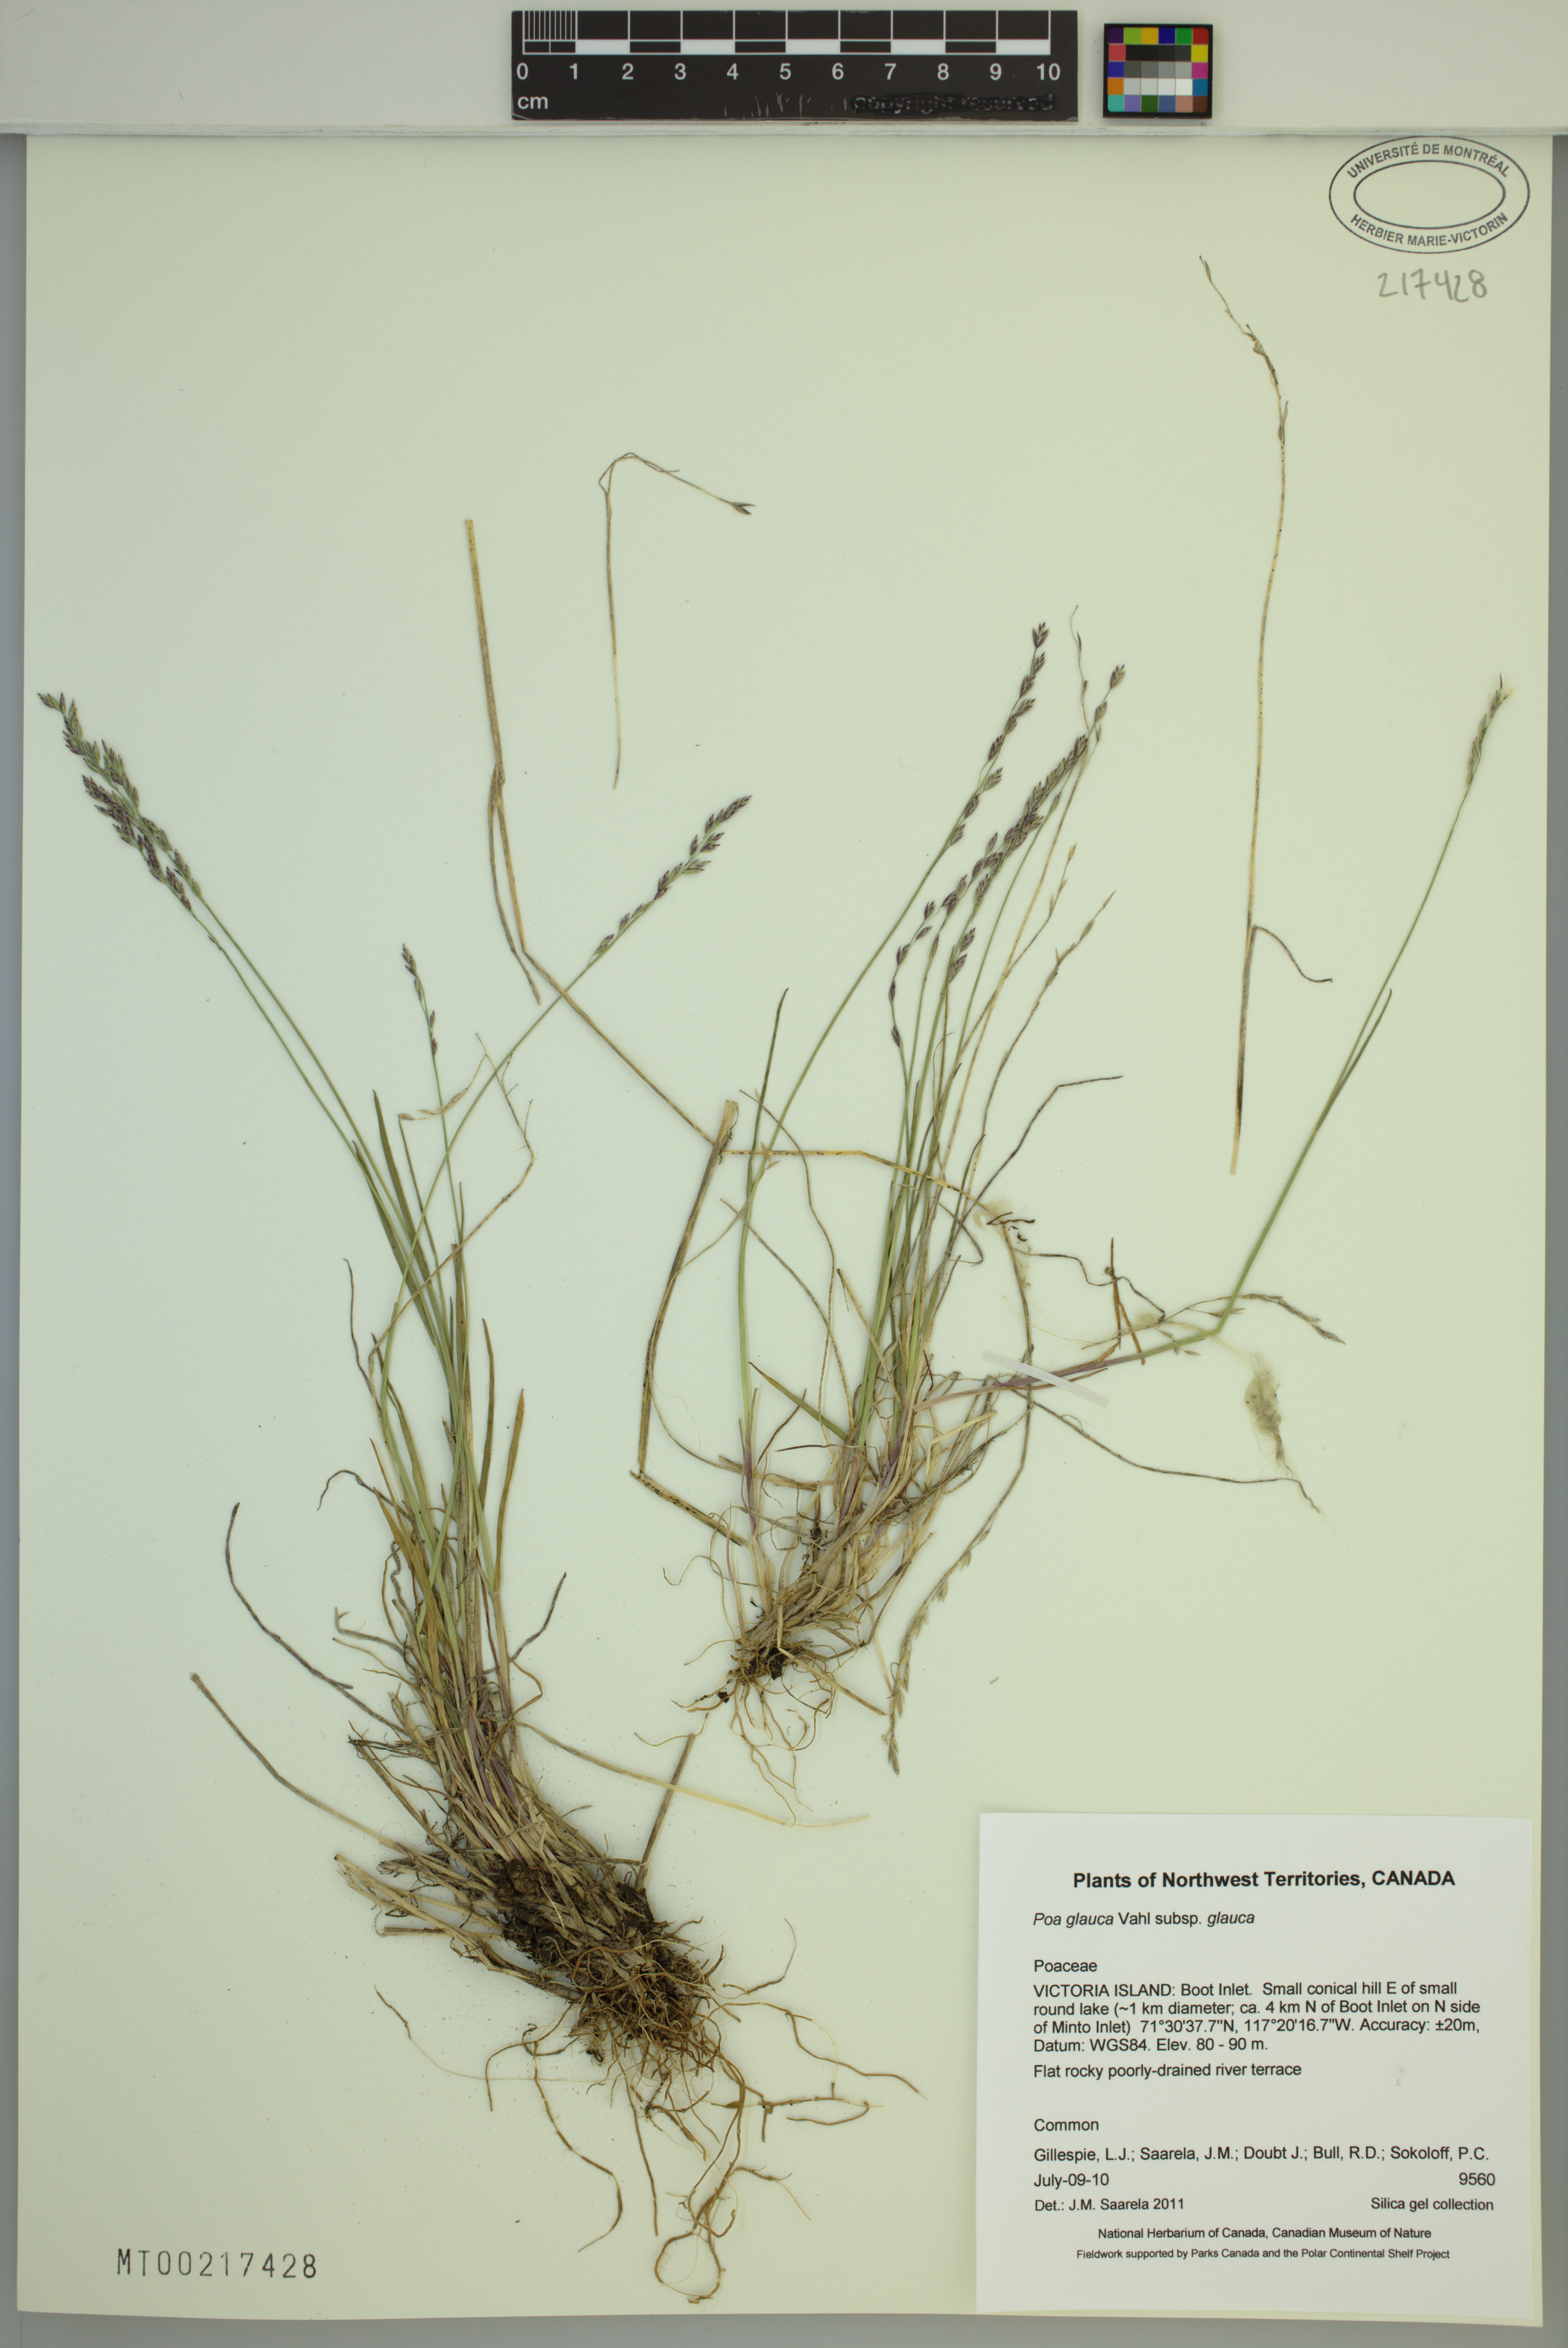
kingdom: Plantae
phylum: Tracheophyta
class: Liliopsida
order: Poales
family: Poaceae
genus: Poa
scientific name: Poa glauca
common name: Glaucous bluegrass
